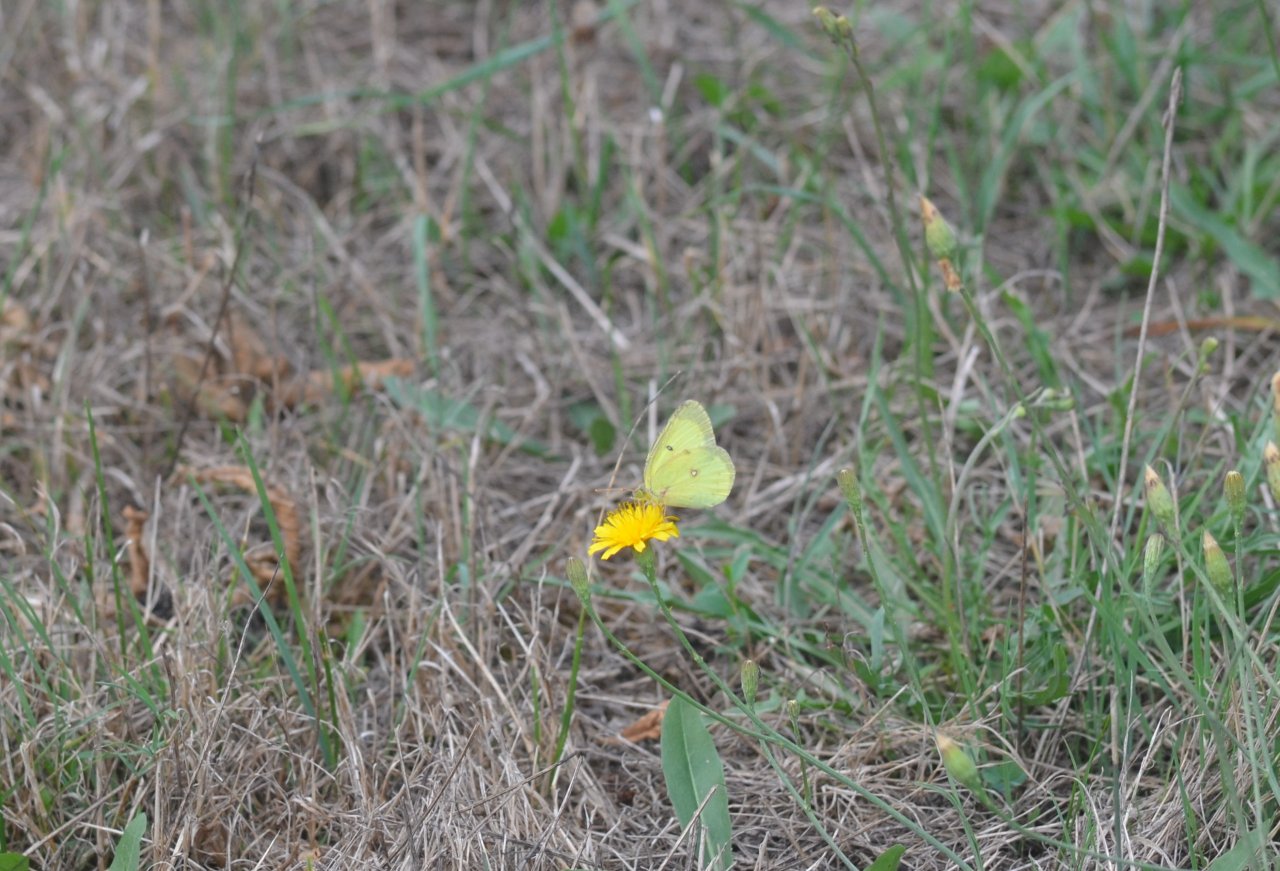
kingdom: Animalia
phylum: Arthropoda
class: Insecta
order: Lepidoptera
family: Pieridae
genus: Colias
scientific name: Colias philodice
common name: Clouded Sulphur
